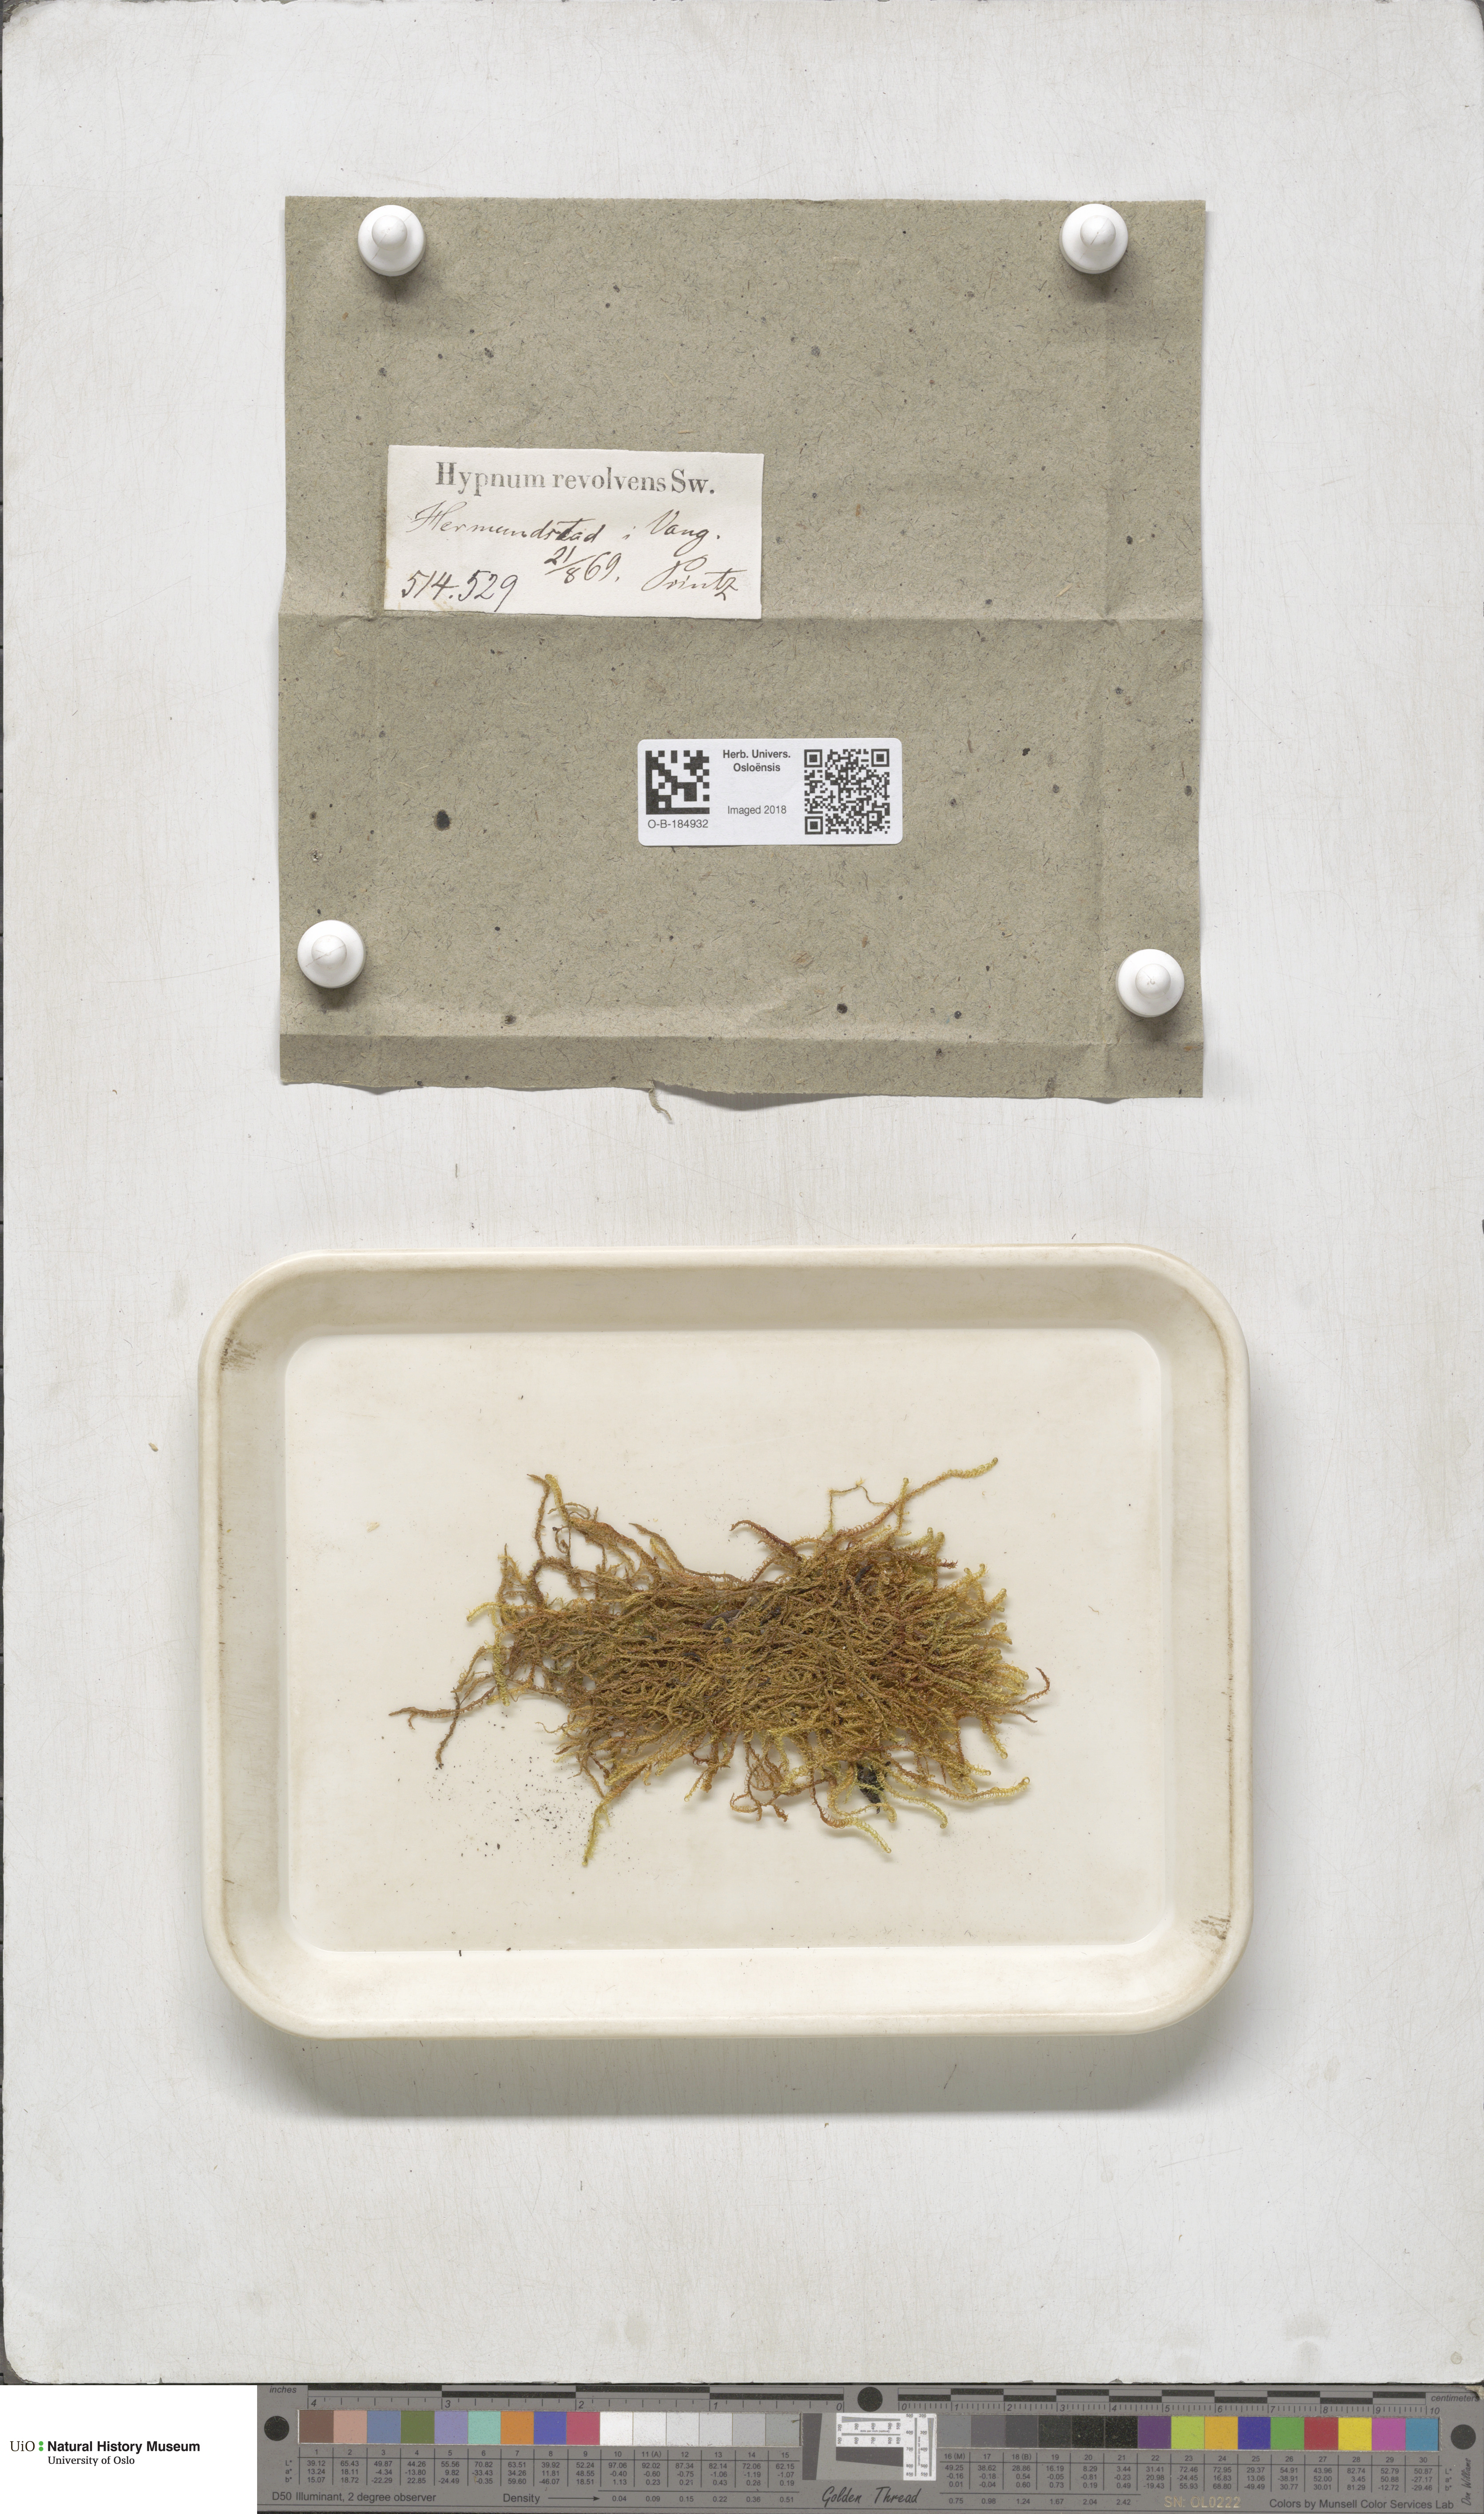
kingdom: Plantae
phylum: Bryophyta
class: Bryopsida
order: Hypnales
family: Scorpidiaceae
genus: Scorpidium
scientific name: Scorpidium revolvens
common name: Rusty hook moss
